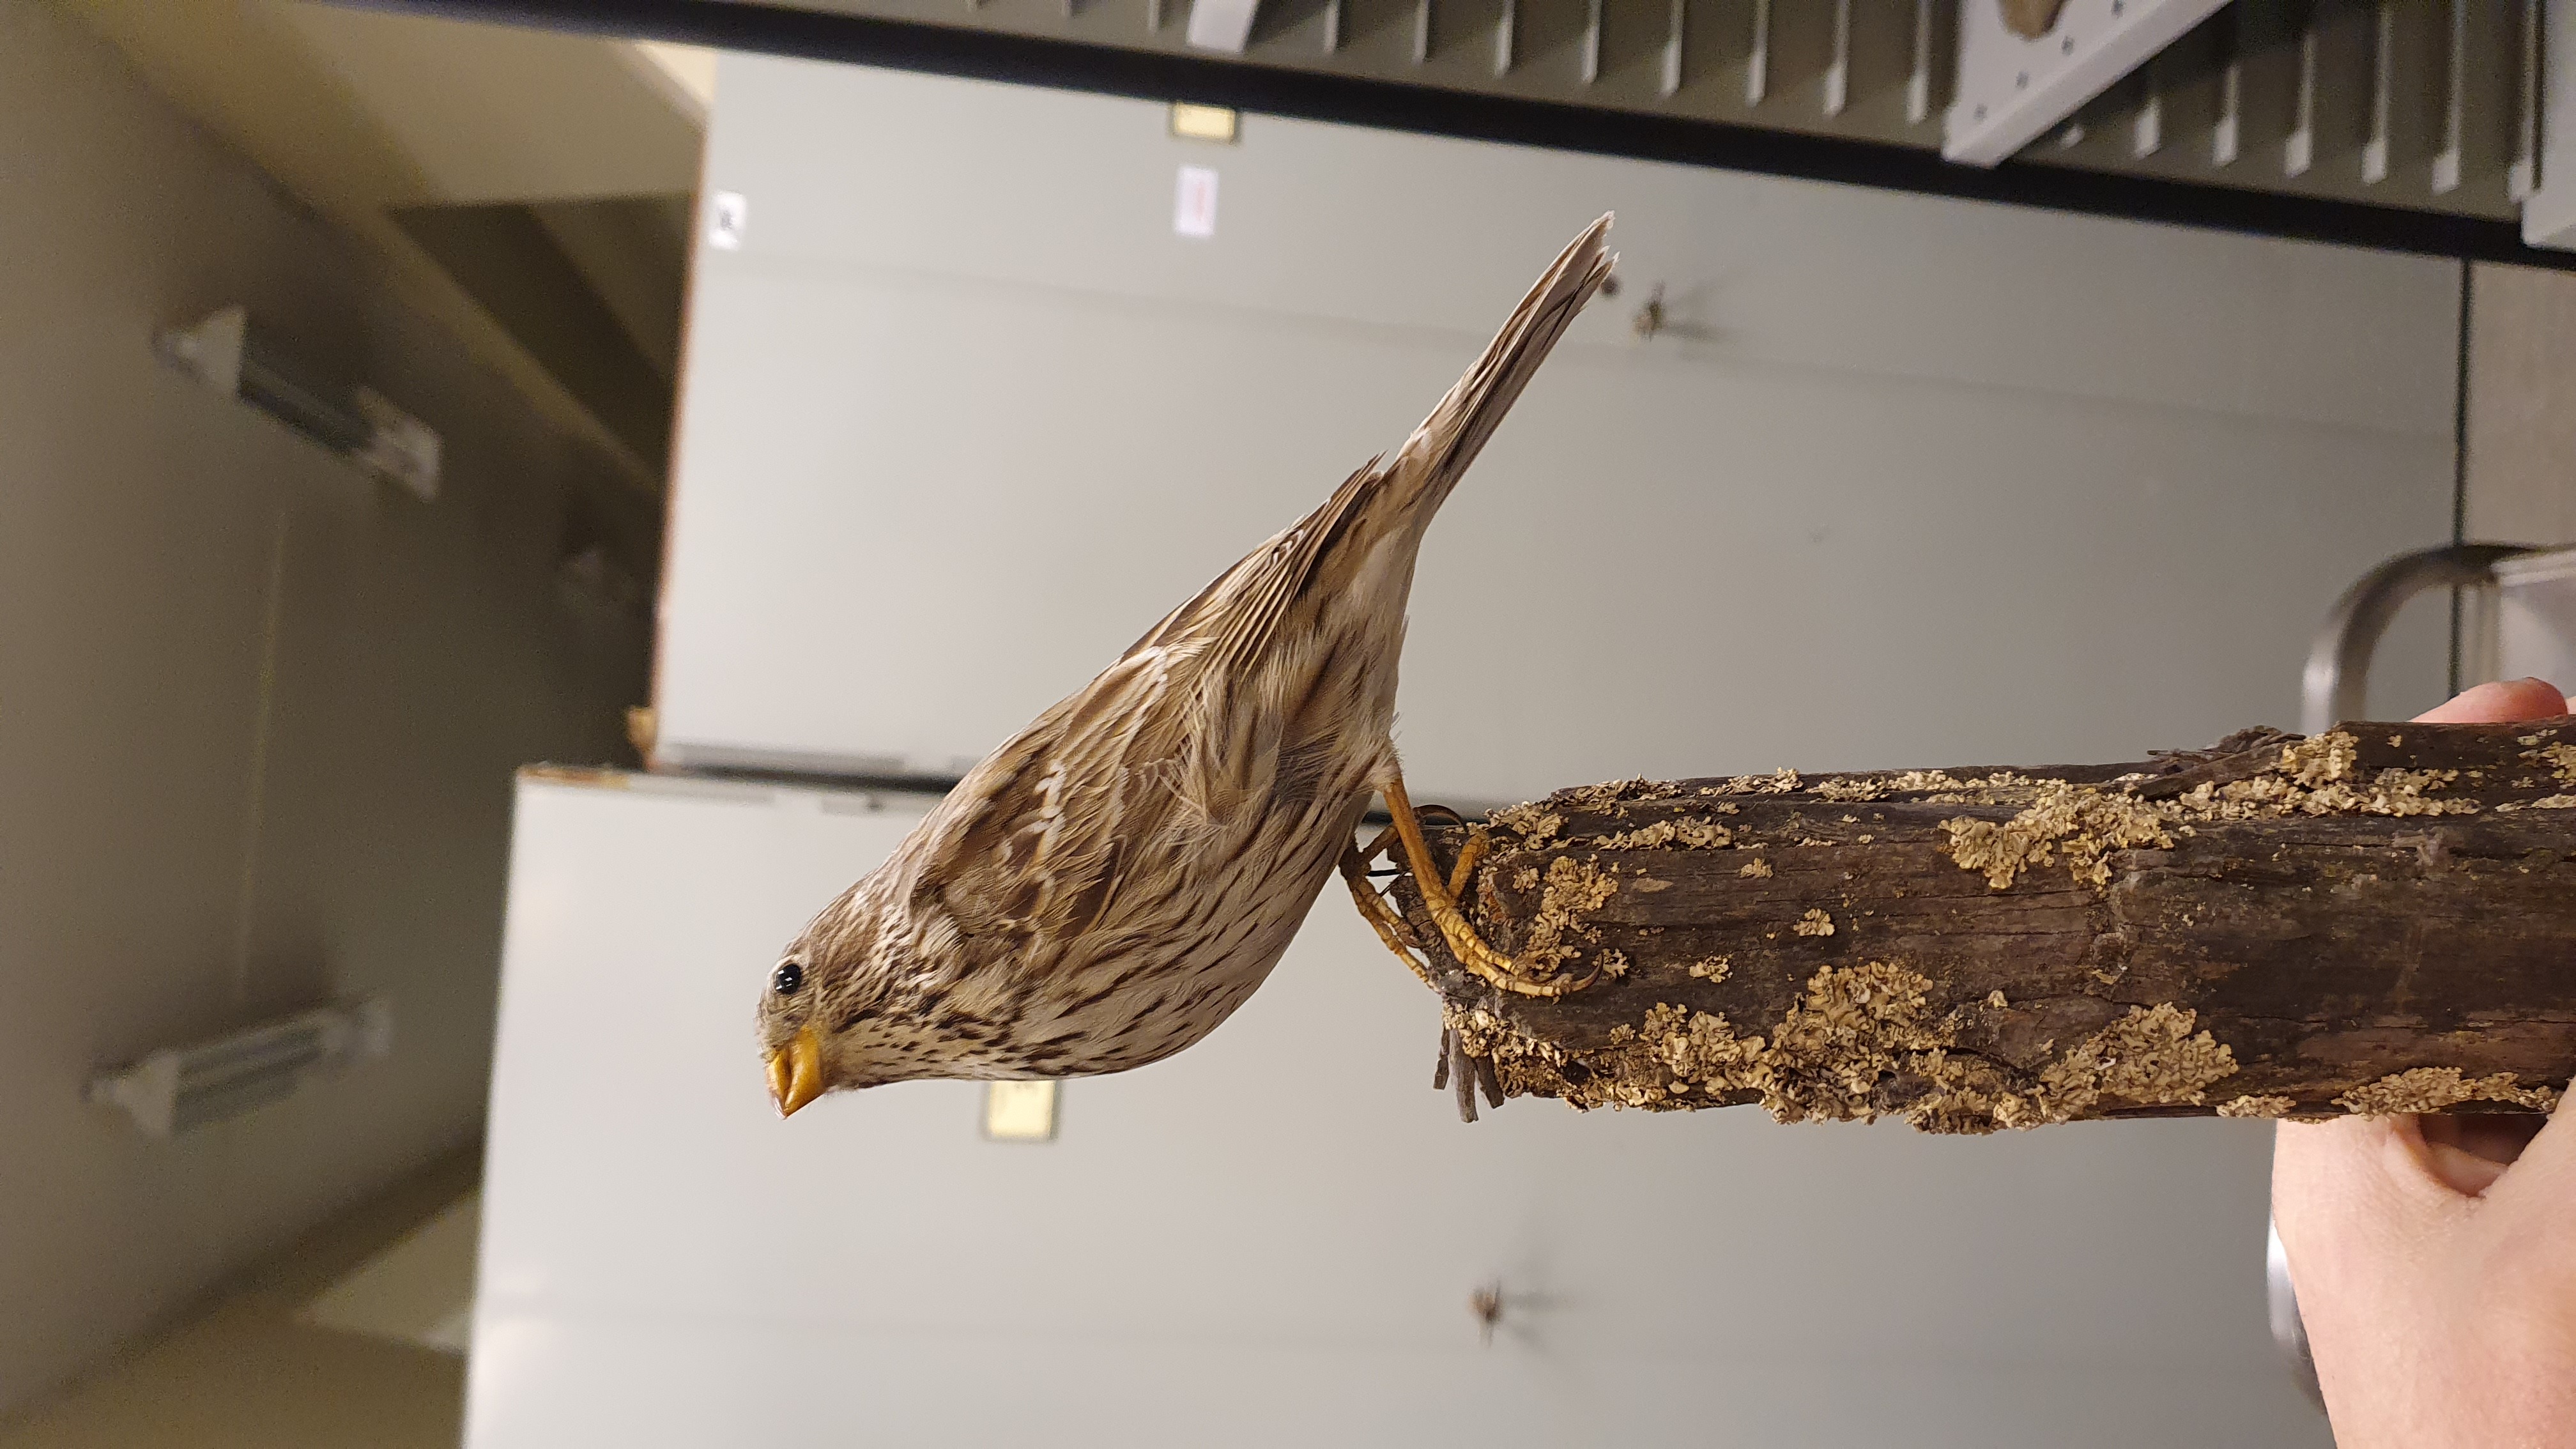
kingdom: Animalia
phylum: Chordata
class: Aves
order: Passeriformes
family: Emberizidae
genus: Emberiza
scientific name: Emberiza calandra
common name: Corn bunting
